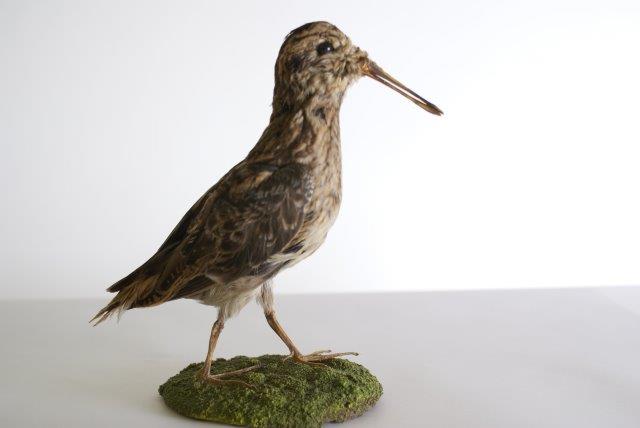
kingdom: Animalia
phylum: Chordata
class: Aves
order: Charadriiformes
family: Scolopacidae
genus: Lymnocryptes
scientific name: Lymnocryptes minimus
